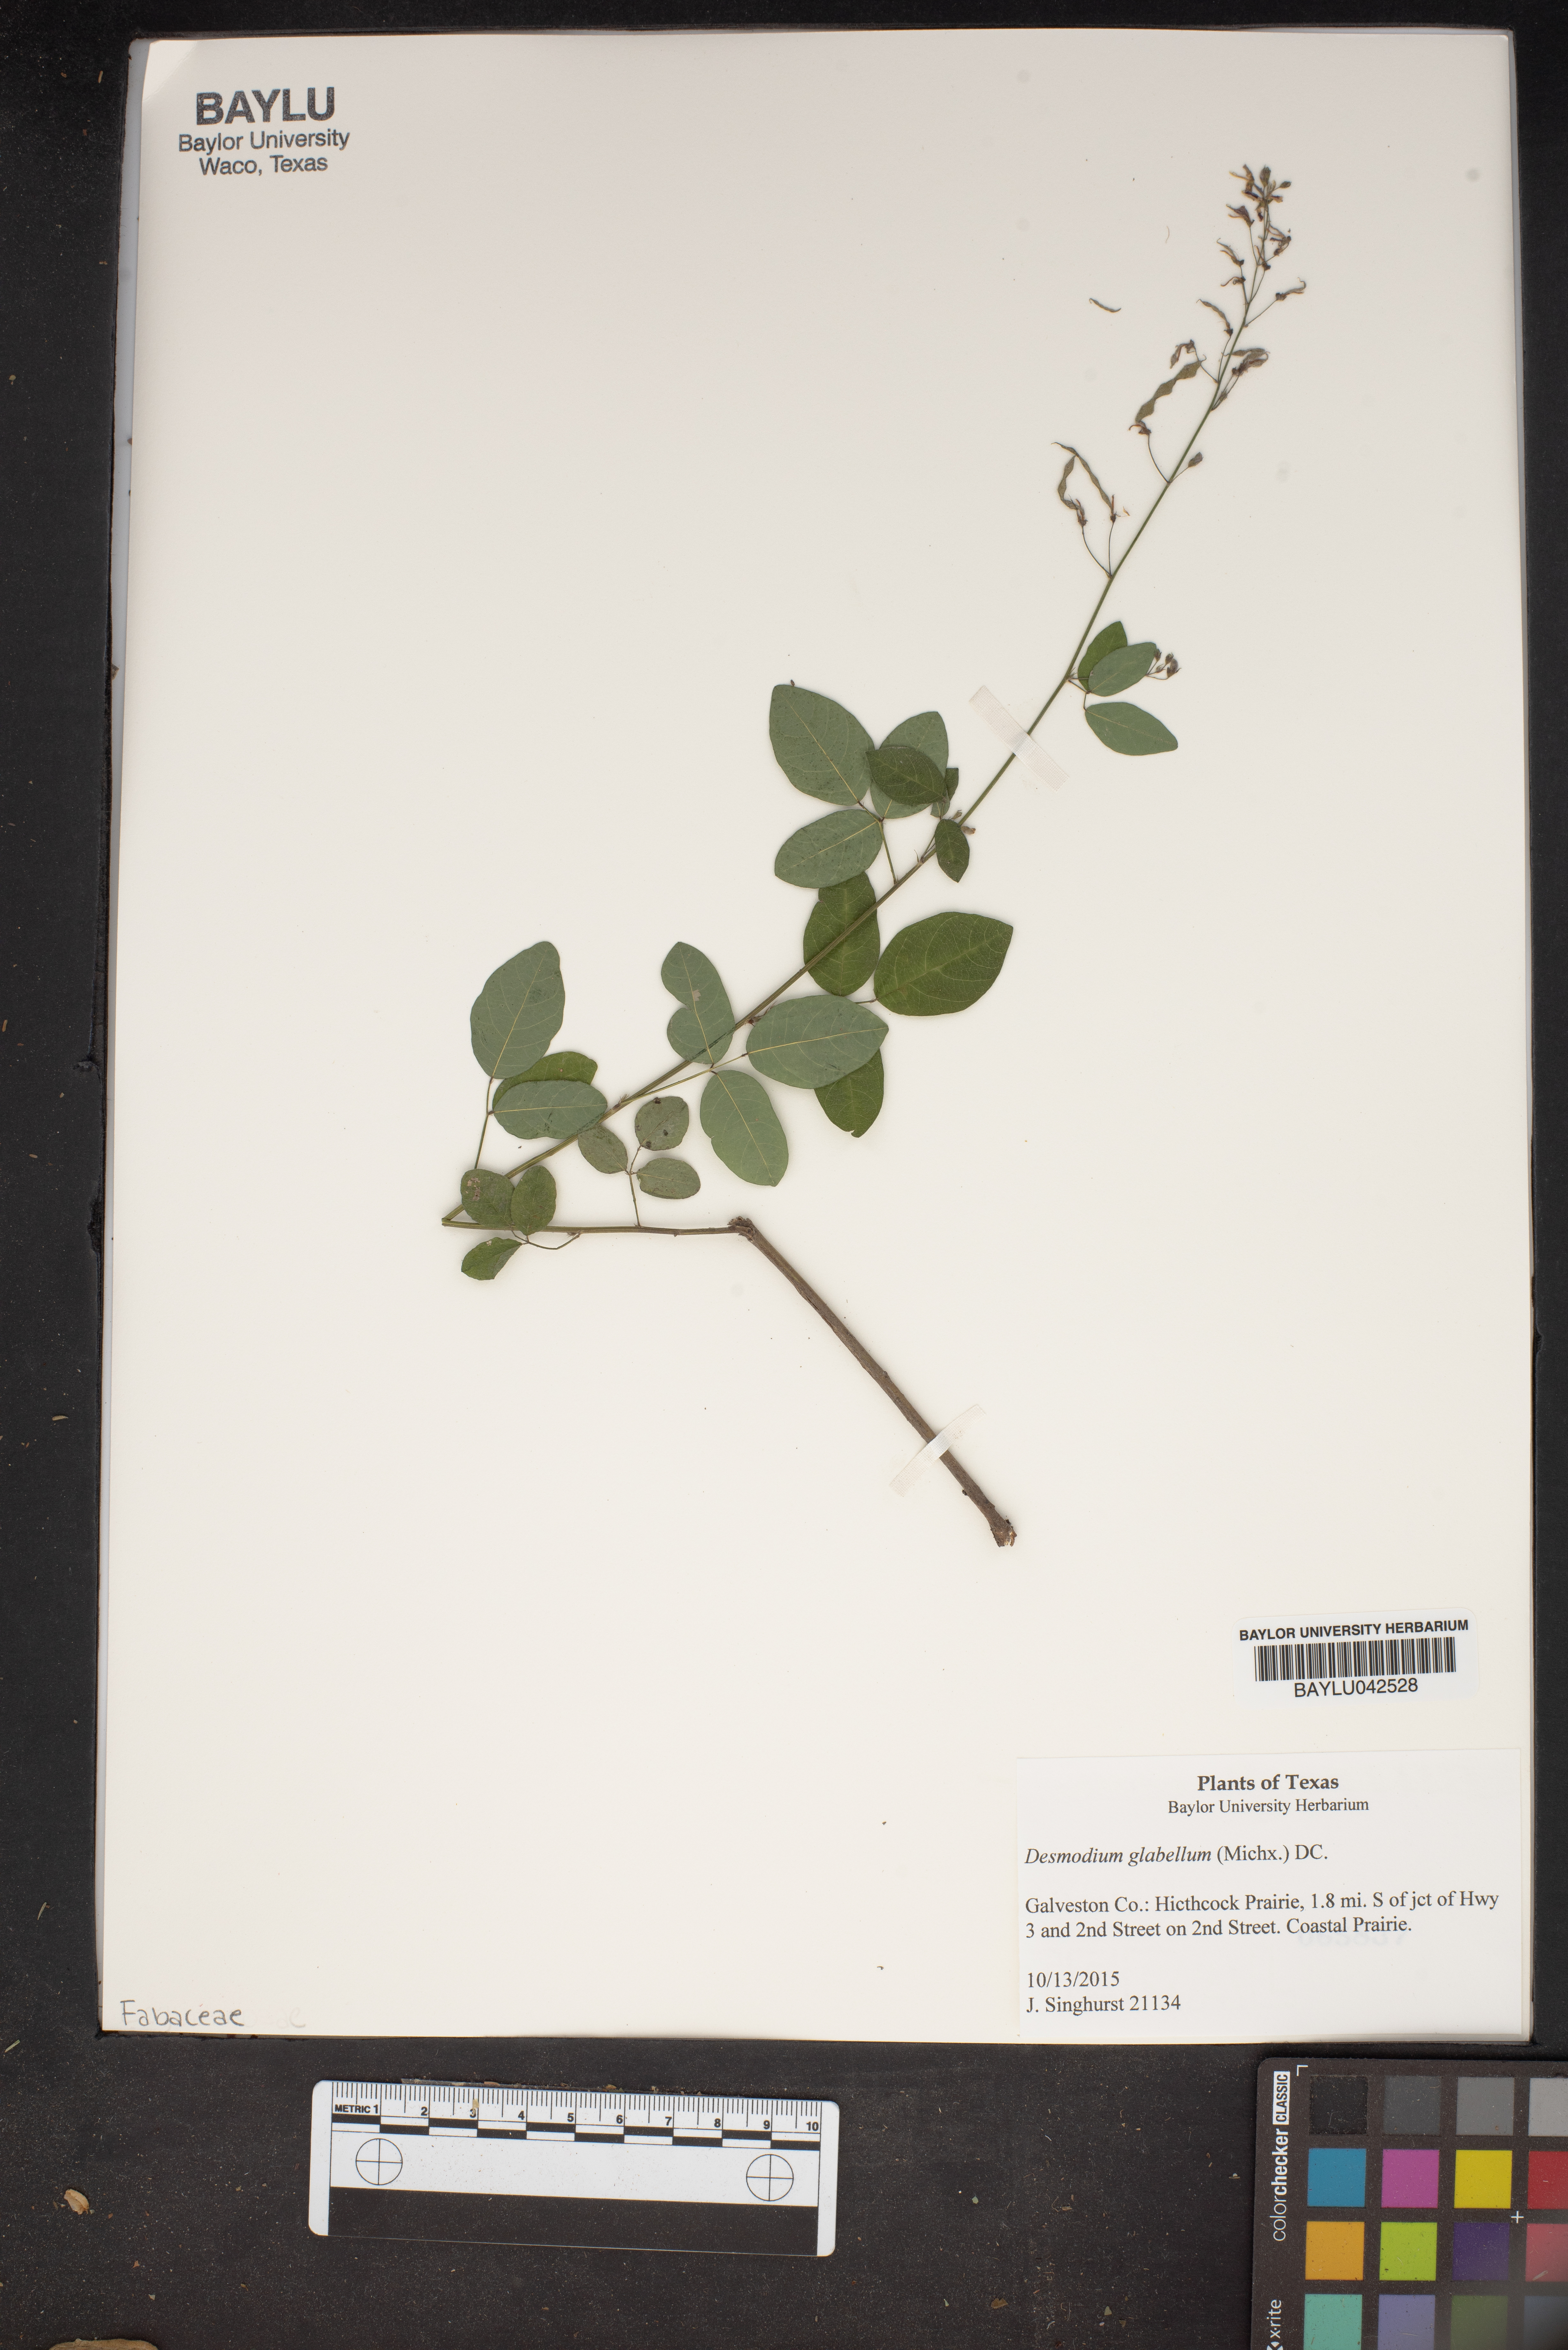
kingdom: Plantae
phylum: Tracheophyta
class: Magnoliopsida
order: Fabales
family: Fabaceae
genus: Desmodium
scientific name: Desmodium glabellum
